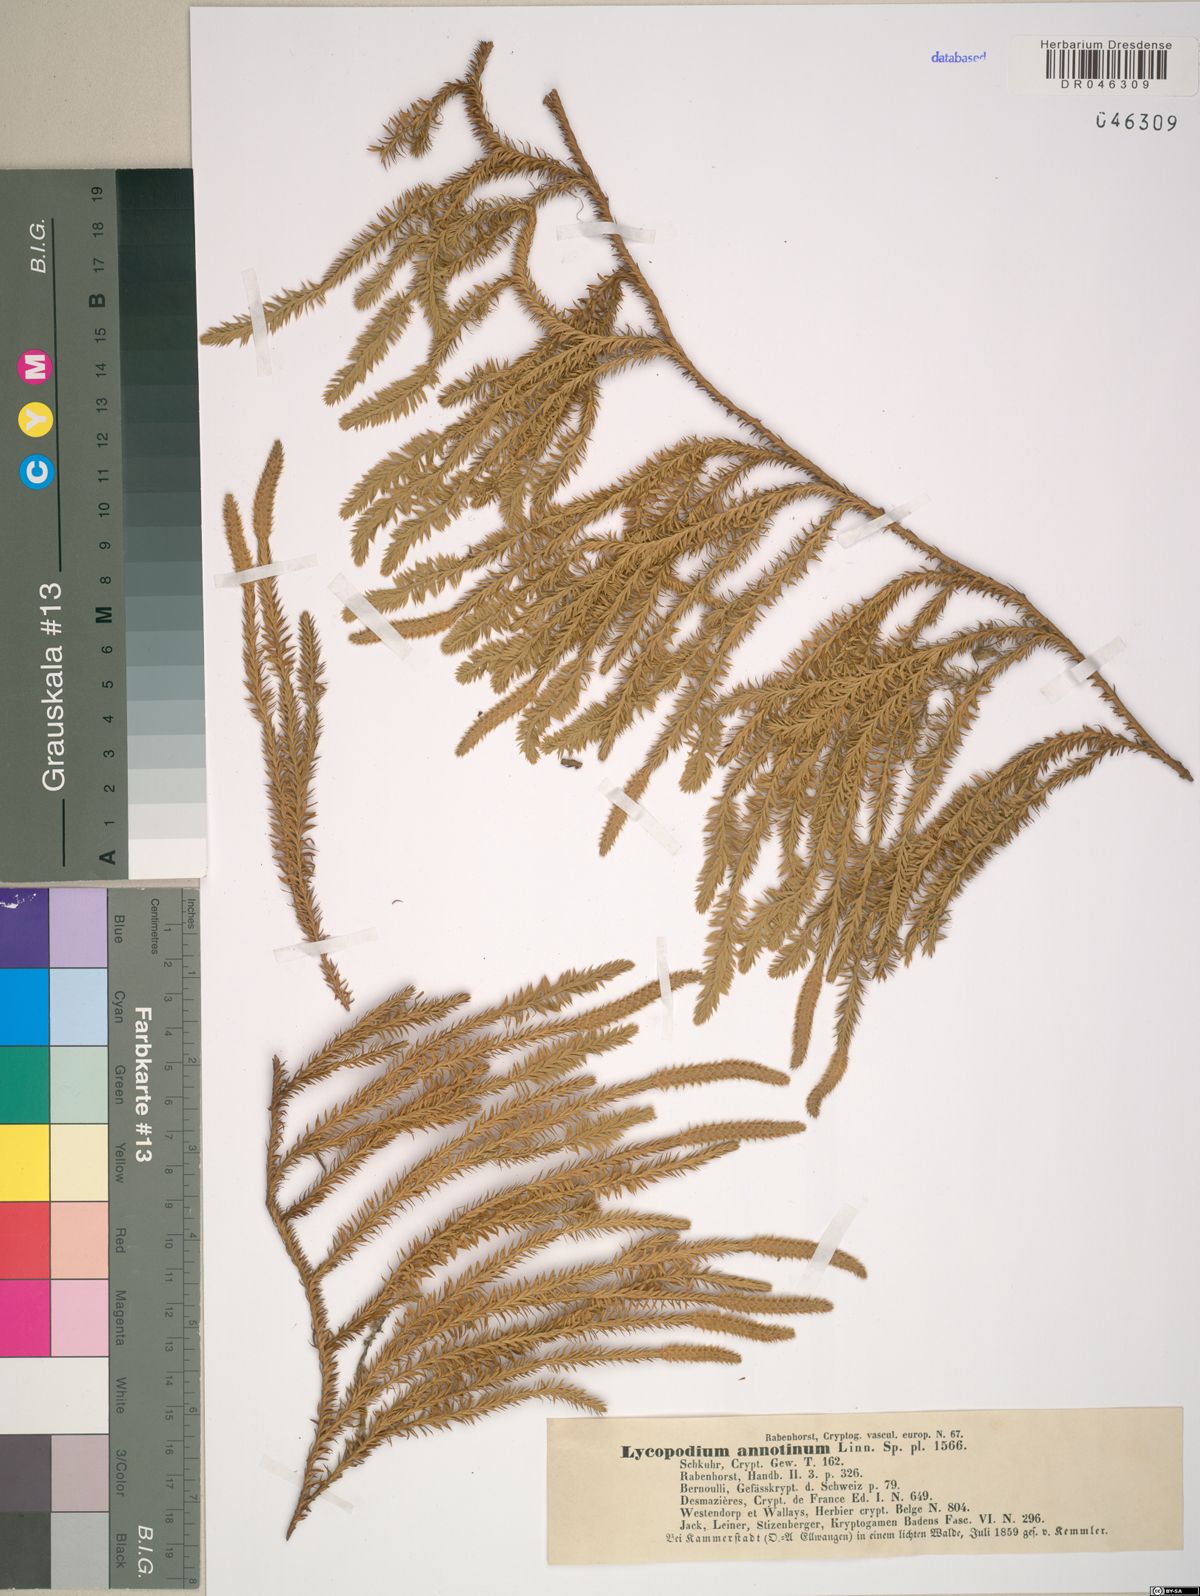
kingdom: Plantae
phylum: Tracheophyta
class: Lycopodiopsida
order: Lycopodiales
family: Lycopodiaceae
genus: Spinulum
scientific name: Spinulum annotinum
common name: Interrupted club-moss
